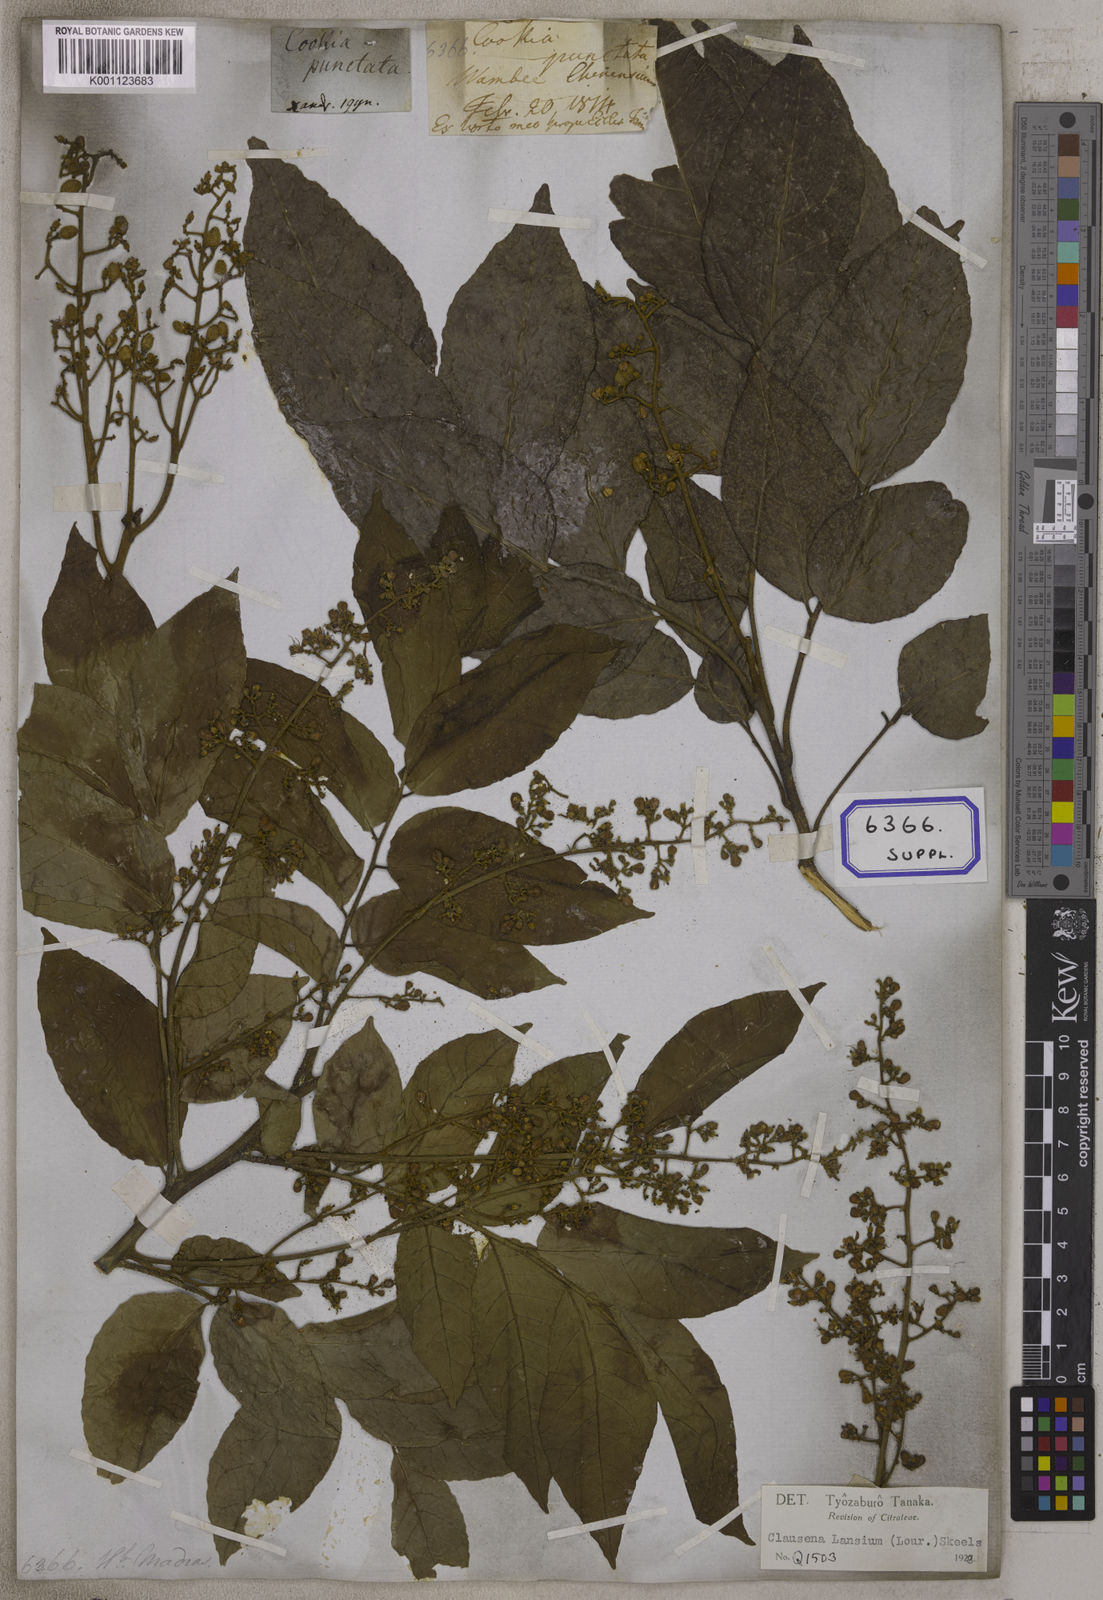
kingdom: Plantae
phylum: Tracheophyta
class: Magnoliopsida
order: Sapindales
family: Rutaceae
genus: Clausena
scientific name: Clausena excavata
